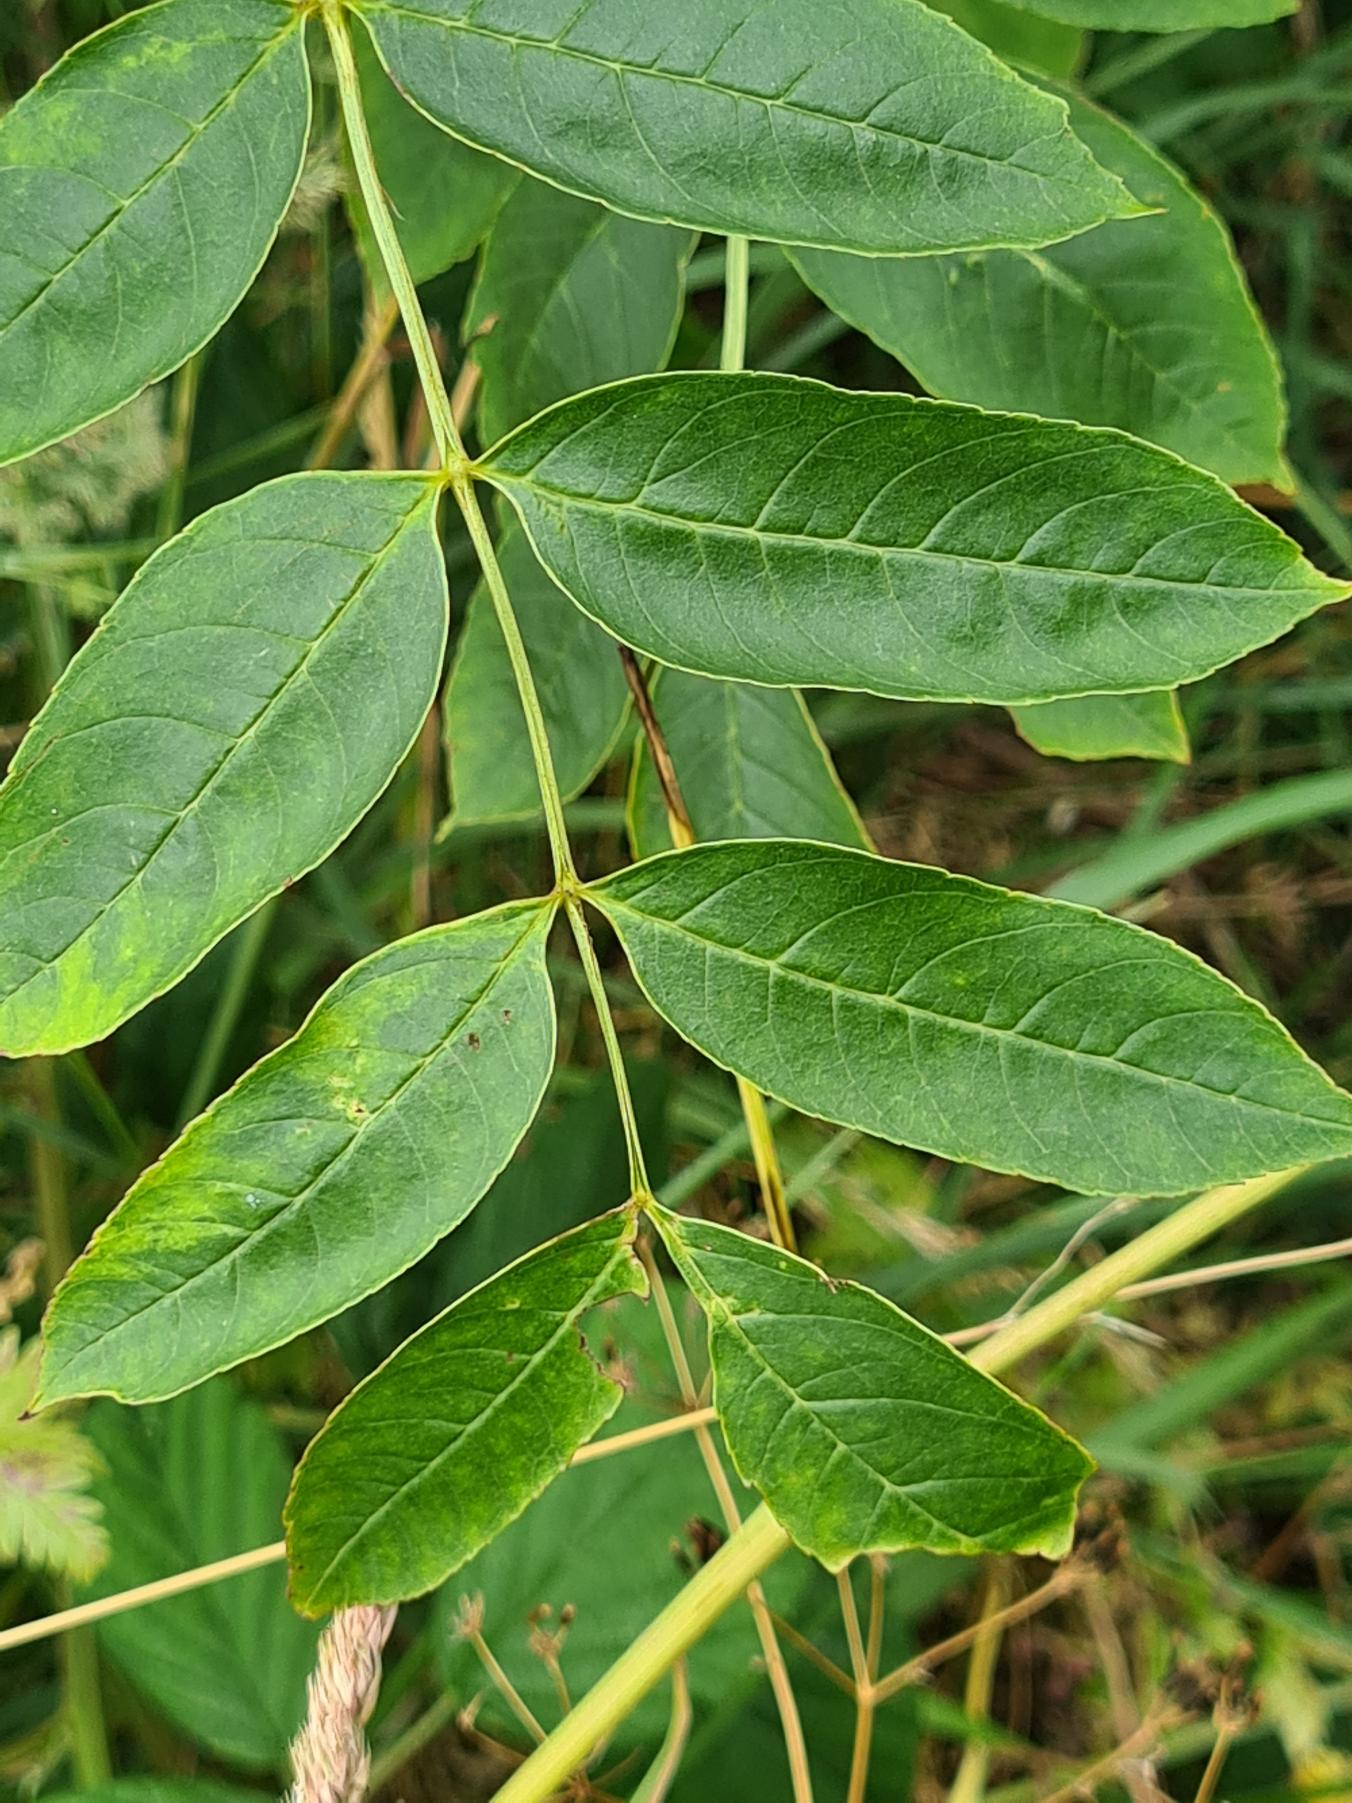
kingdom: Plantae
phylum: Tracheophyta
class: Magnoliopsida
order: Lamiales
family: Oleaceae
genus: Fraxinus
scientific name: Fraxinus excelsior
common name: Ask
